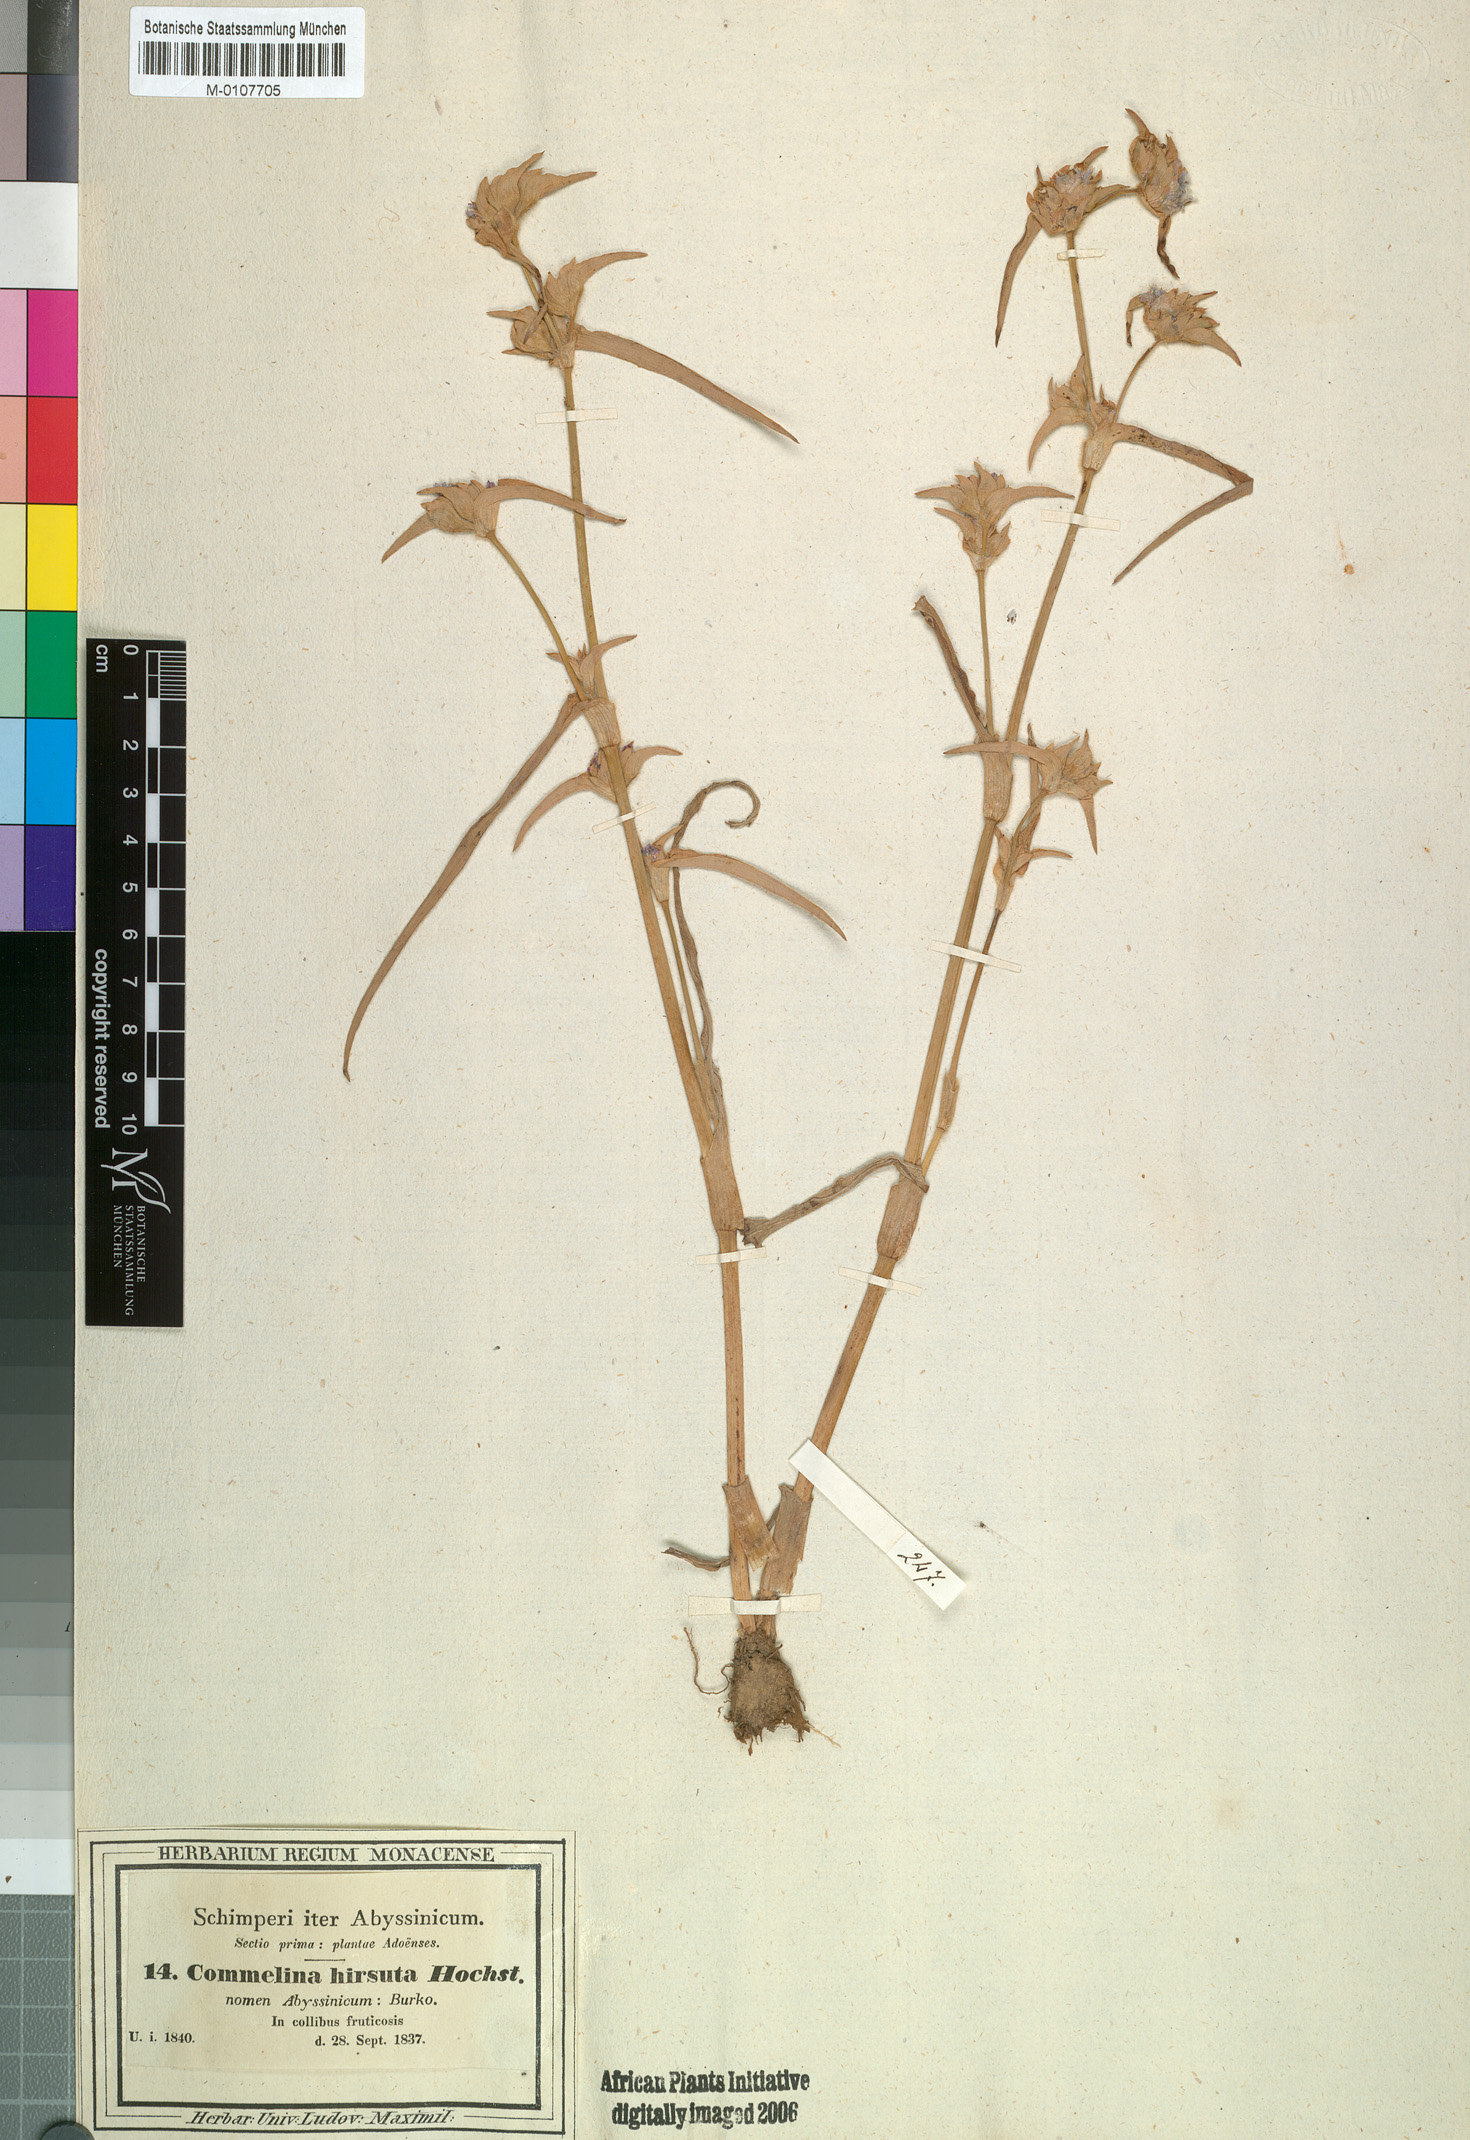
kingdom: Plantae
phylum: Tracheophyta
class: Liliopsida
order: Commelinales
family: Commelinaceae
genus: Cyanotis
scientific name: Cyanotis vaga
